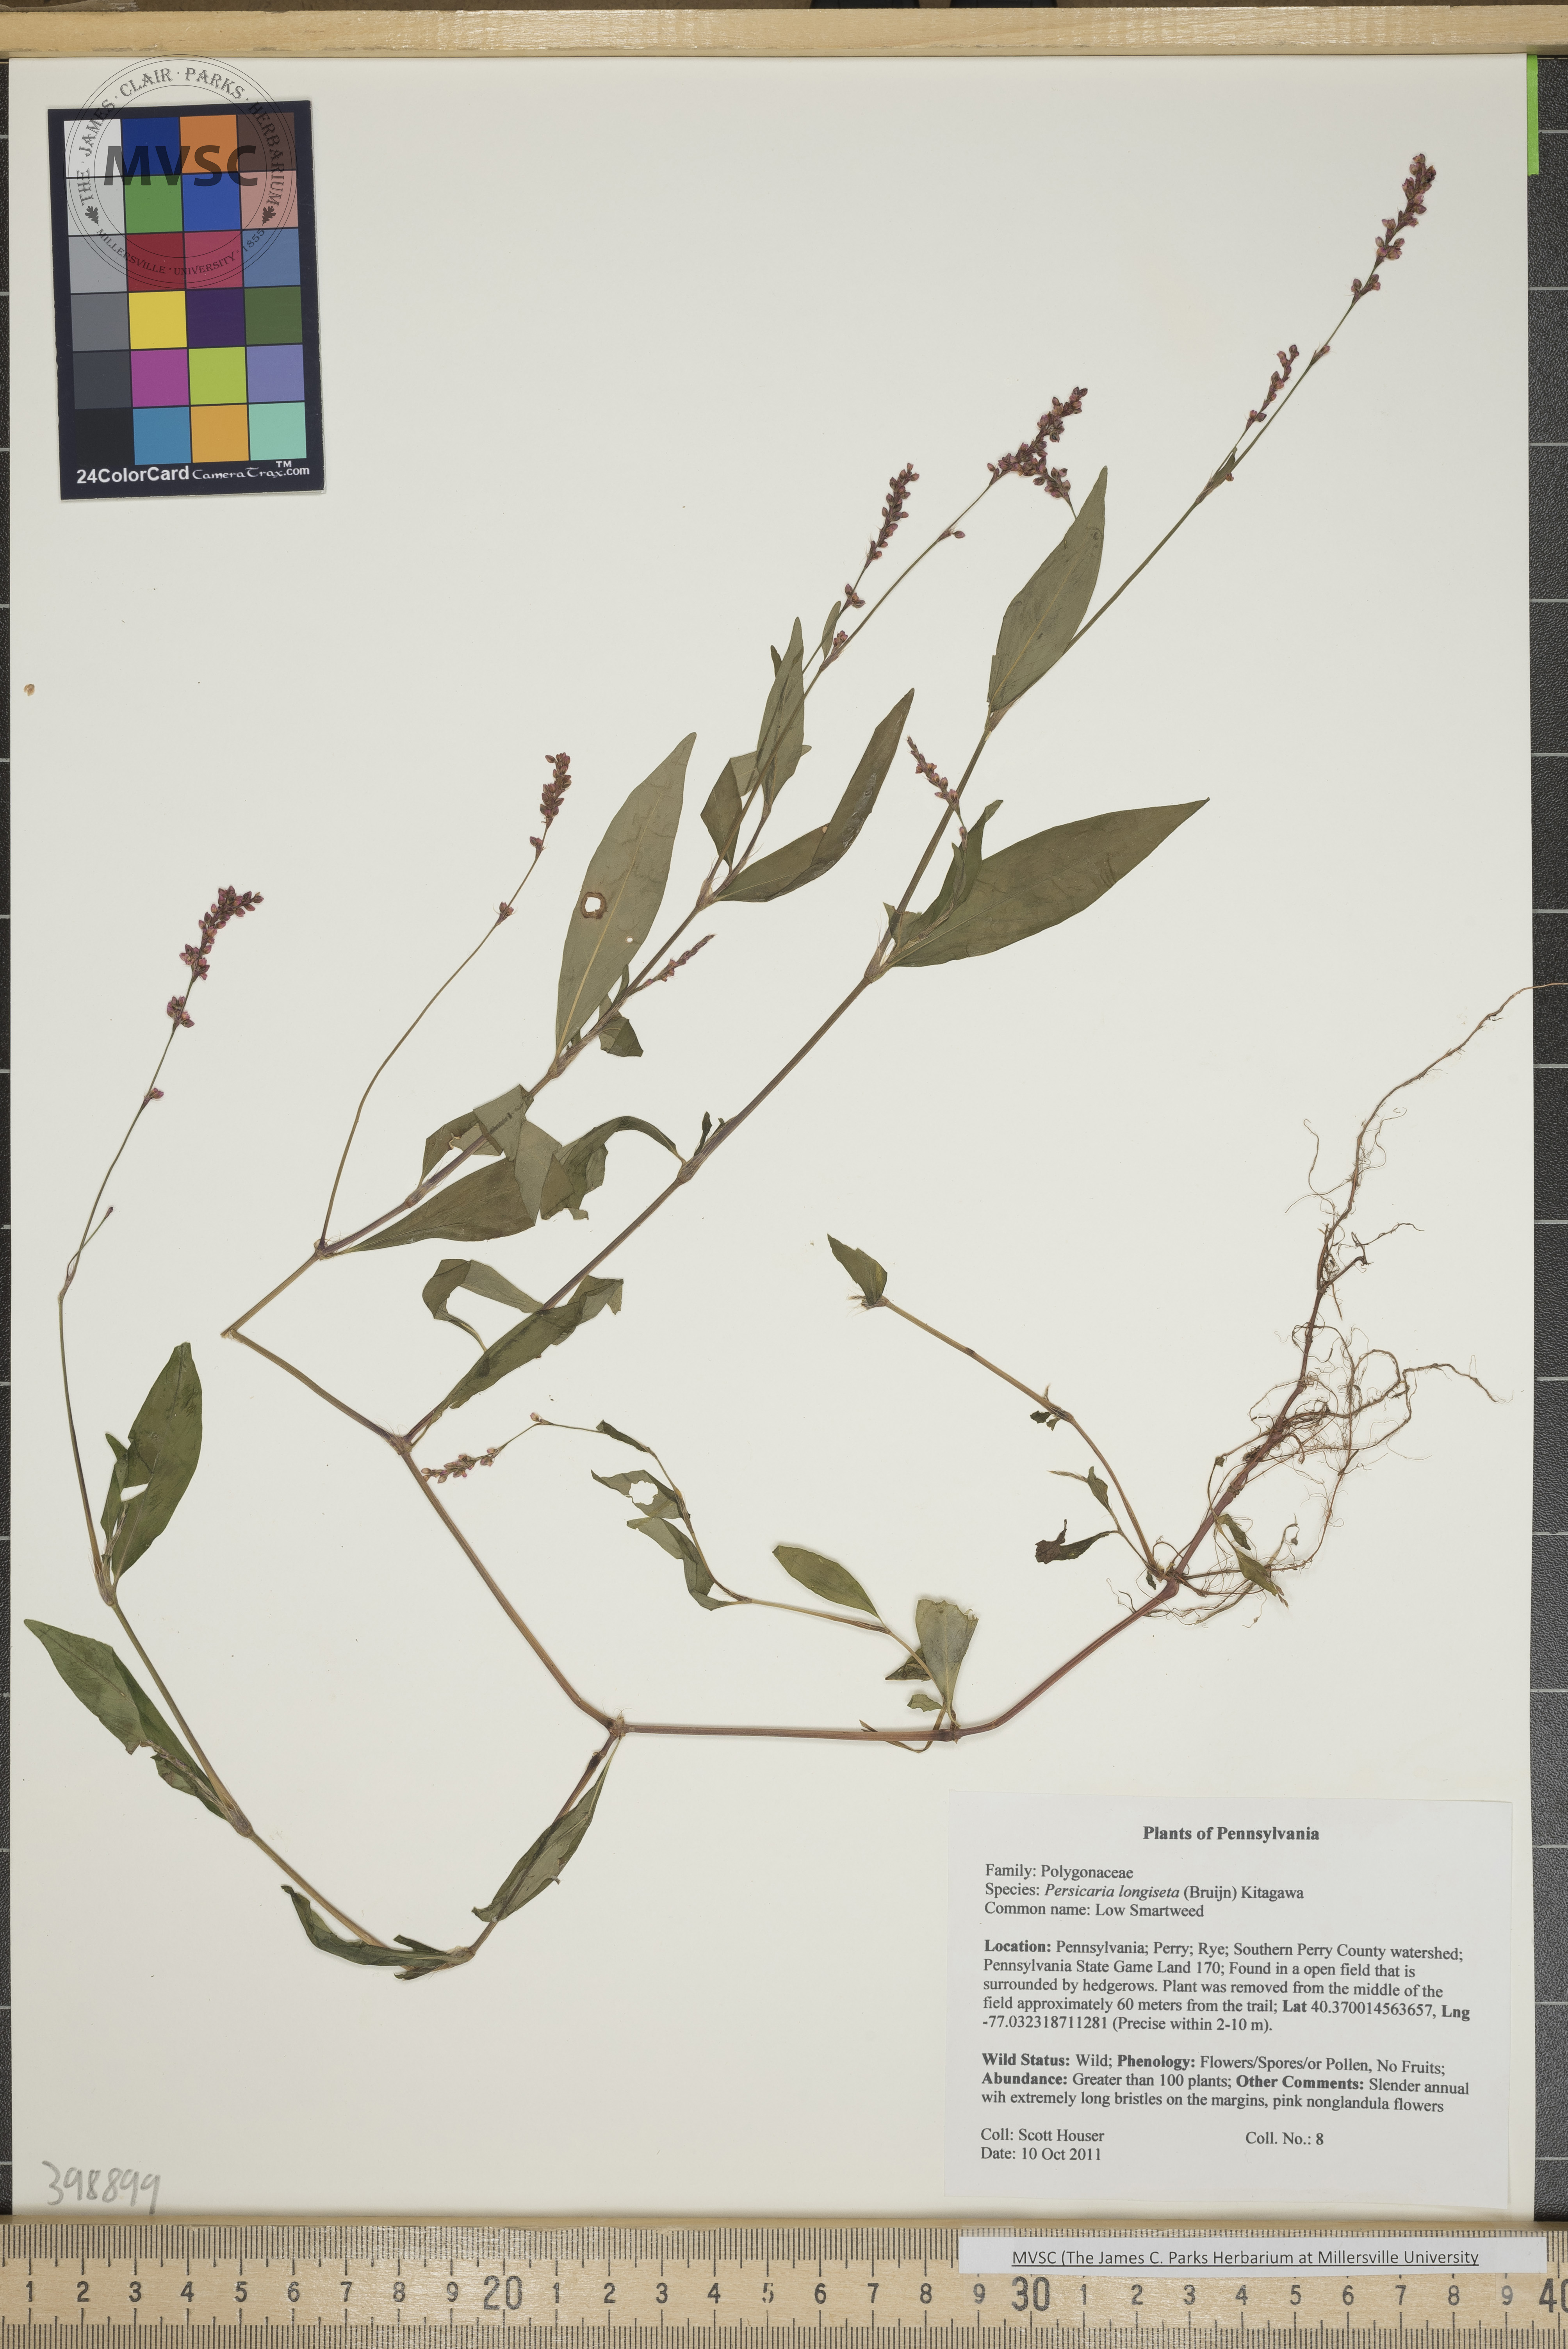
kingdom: Plantae
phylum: Tracheophyta
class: Magnoliopsida
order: Caryophyllales
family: Polygonaceae
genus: Persicaria
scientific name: Persicaria longiseta
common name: Low smartweed
